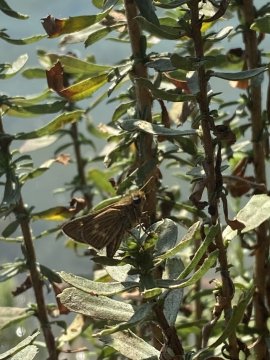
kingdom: Animalia
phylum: Arthropoda
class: Insecta
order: Lepidoptera
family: Hesperiidae
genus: Panoquina
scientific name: Panoquina errans
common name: Wandering Skipper
